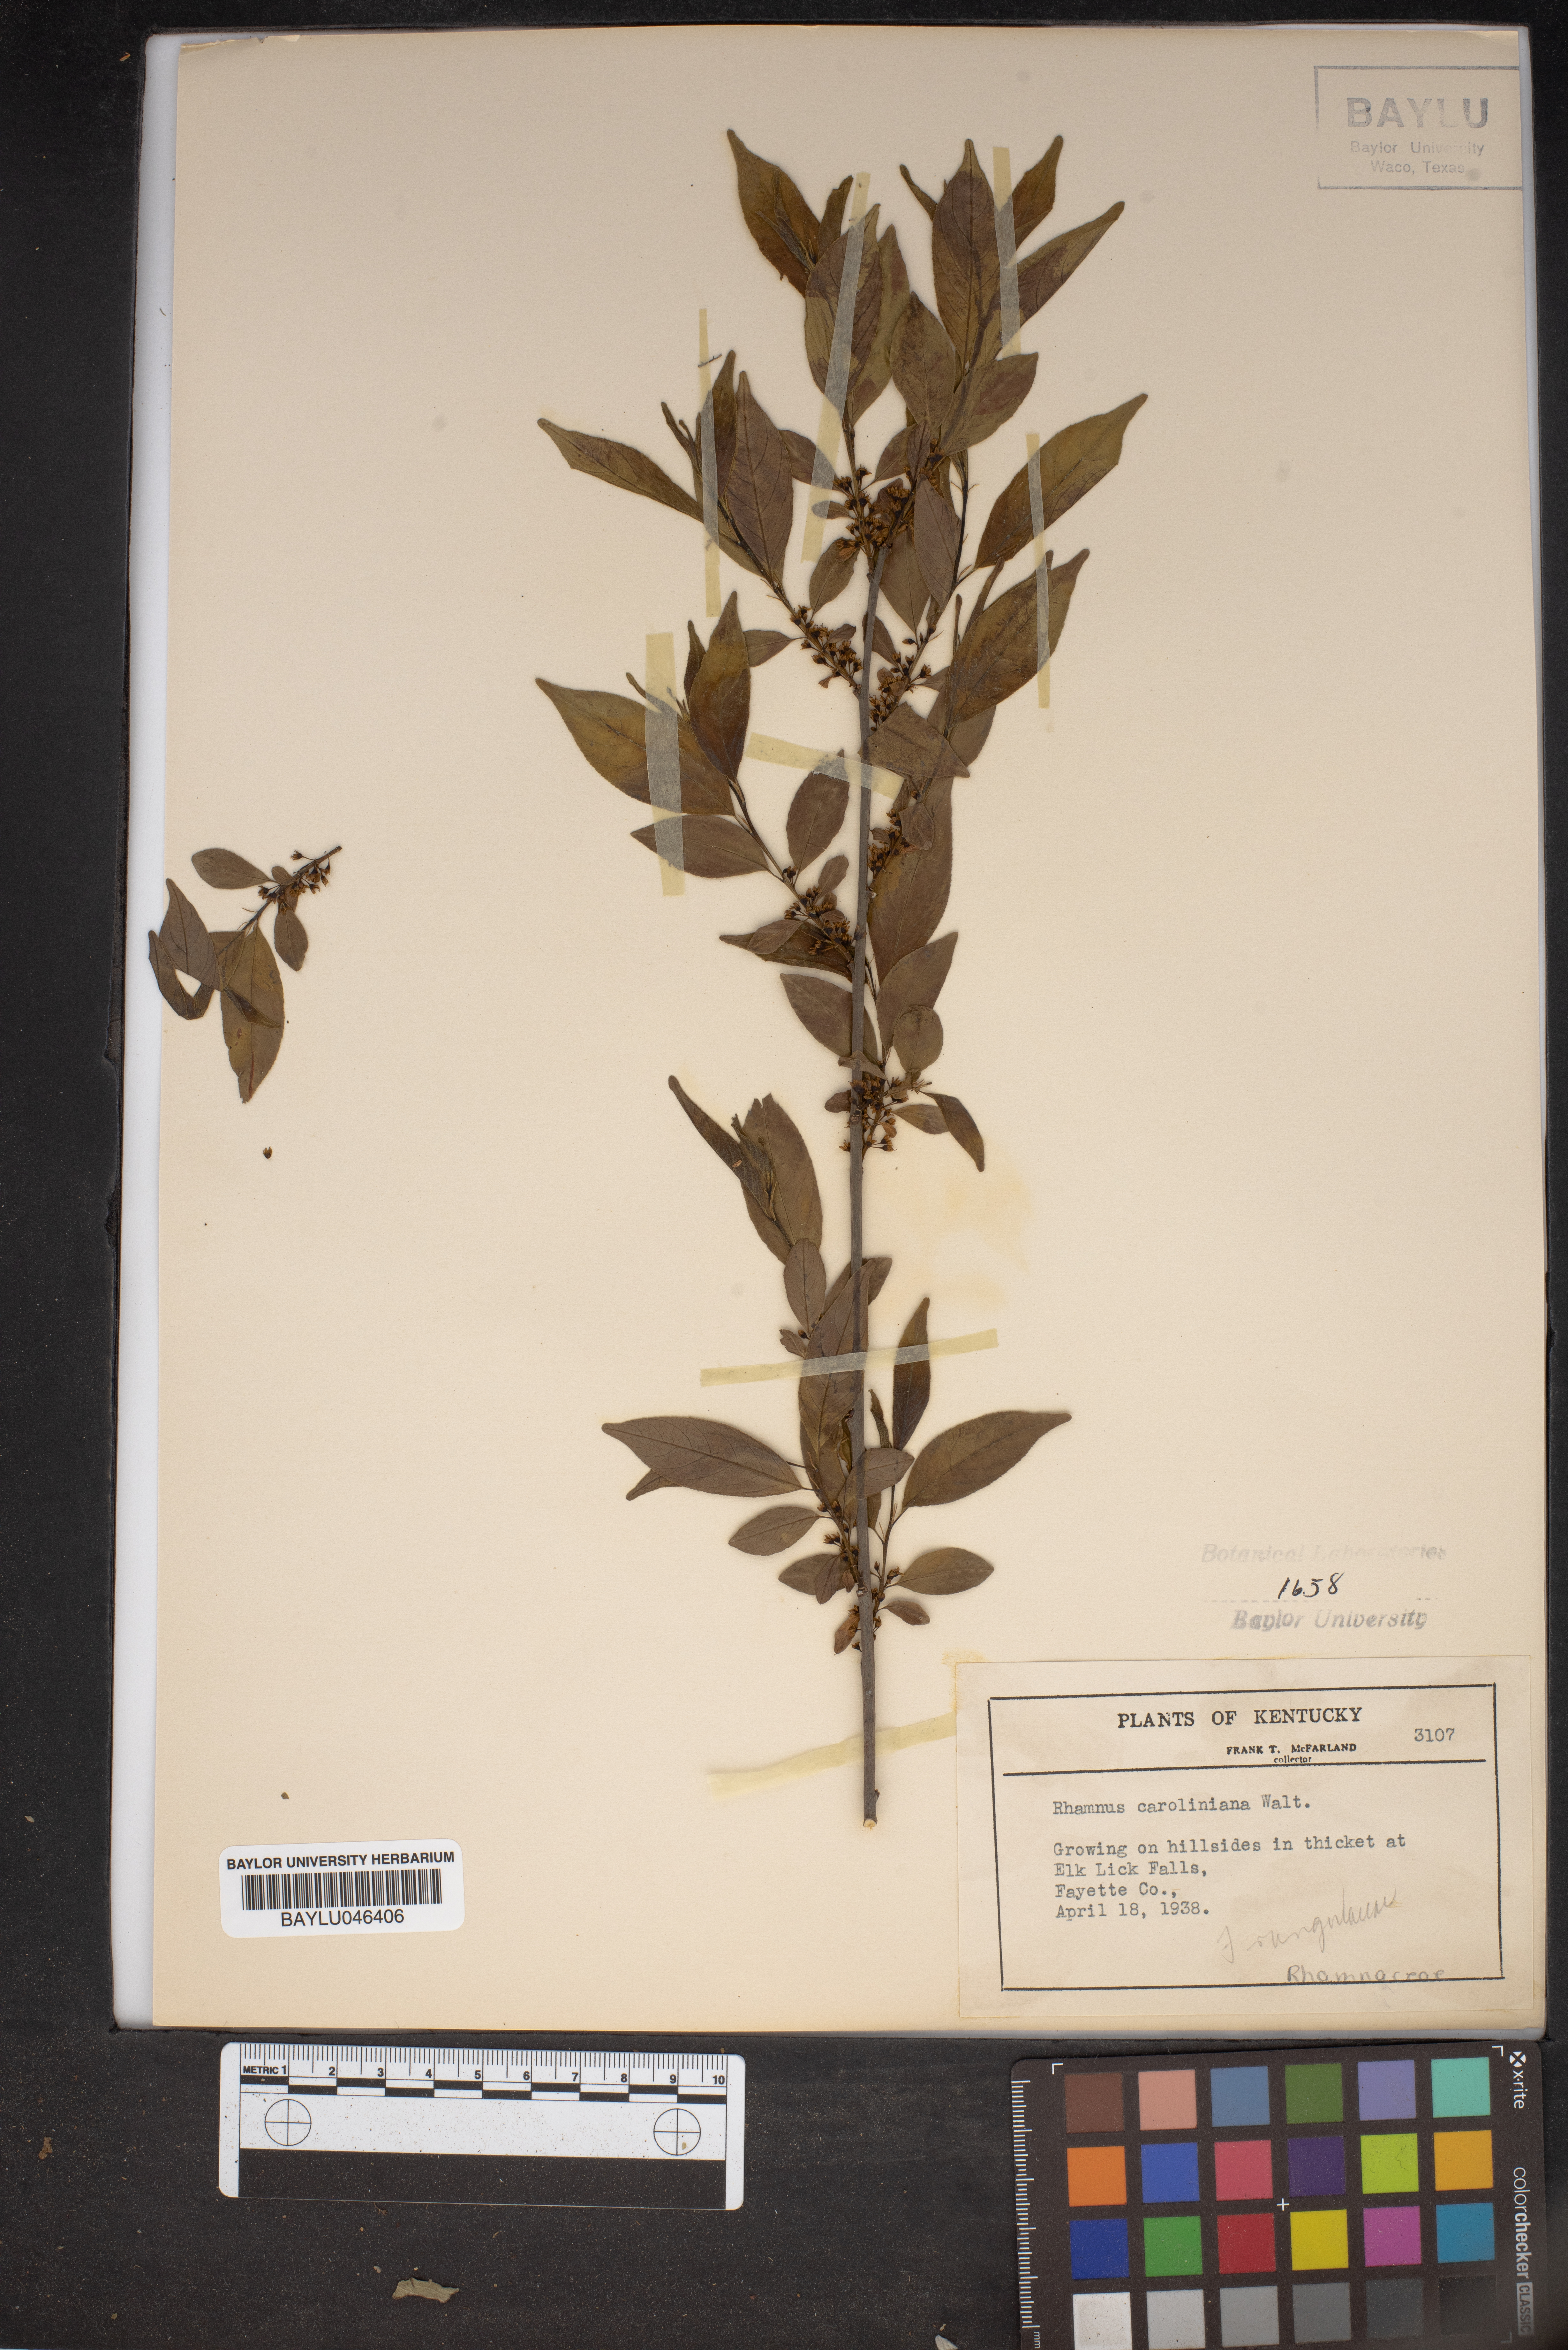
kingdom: Plantae
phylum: Tracheophyta
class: Magnoliopsida
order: Rosales
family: Rhamnaceae
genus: Frangula
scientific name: Frangula caroliniana
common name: Carolina buckthorn
